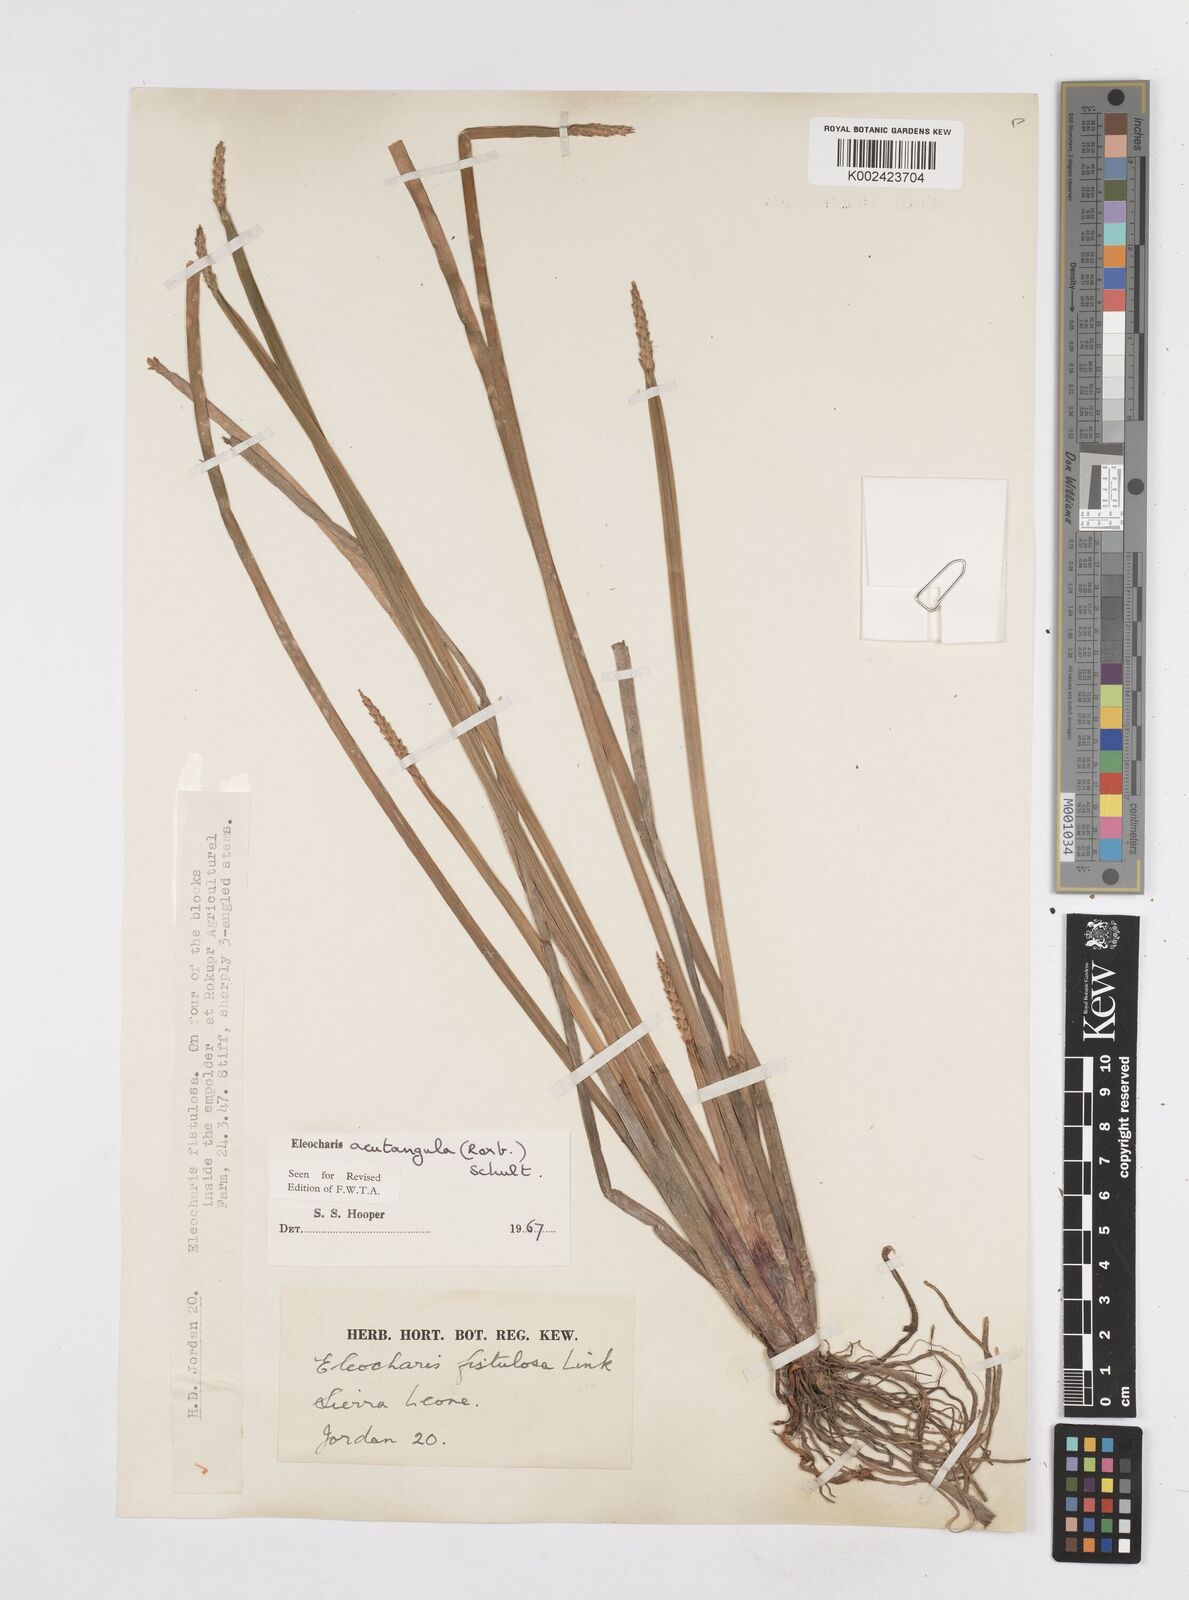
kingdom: Plantae
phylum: Tracheophyta
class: Liliopsida
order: Poales
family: Cyperaceae
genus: Eleocharis
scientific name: Eleocharis acutangula
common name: Acute spikerush
